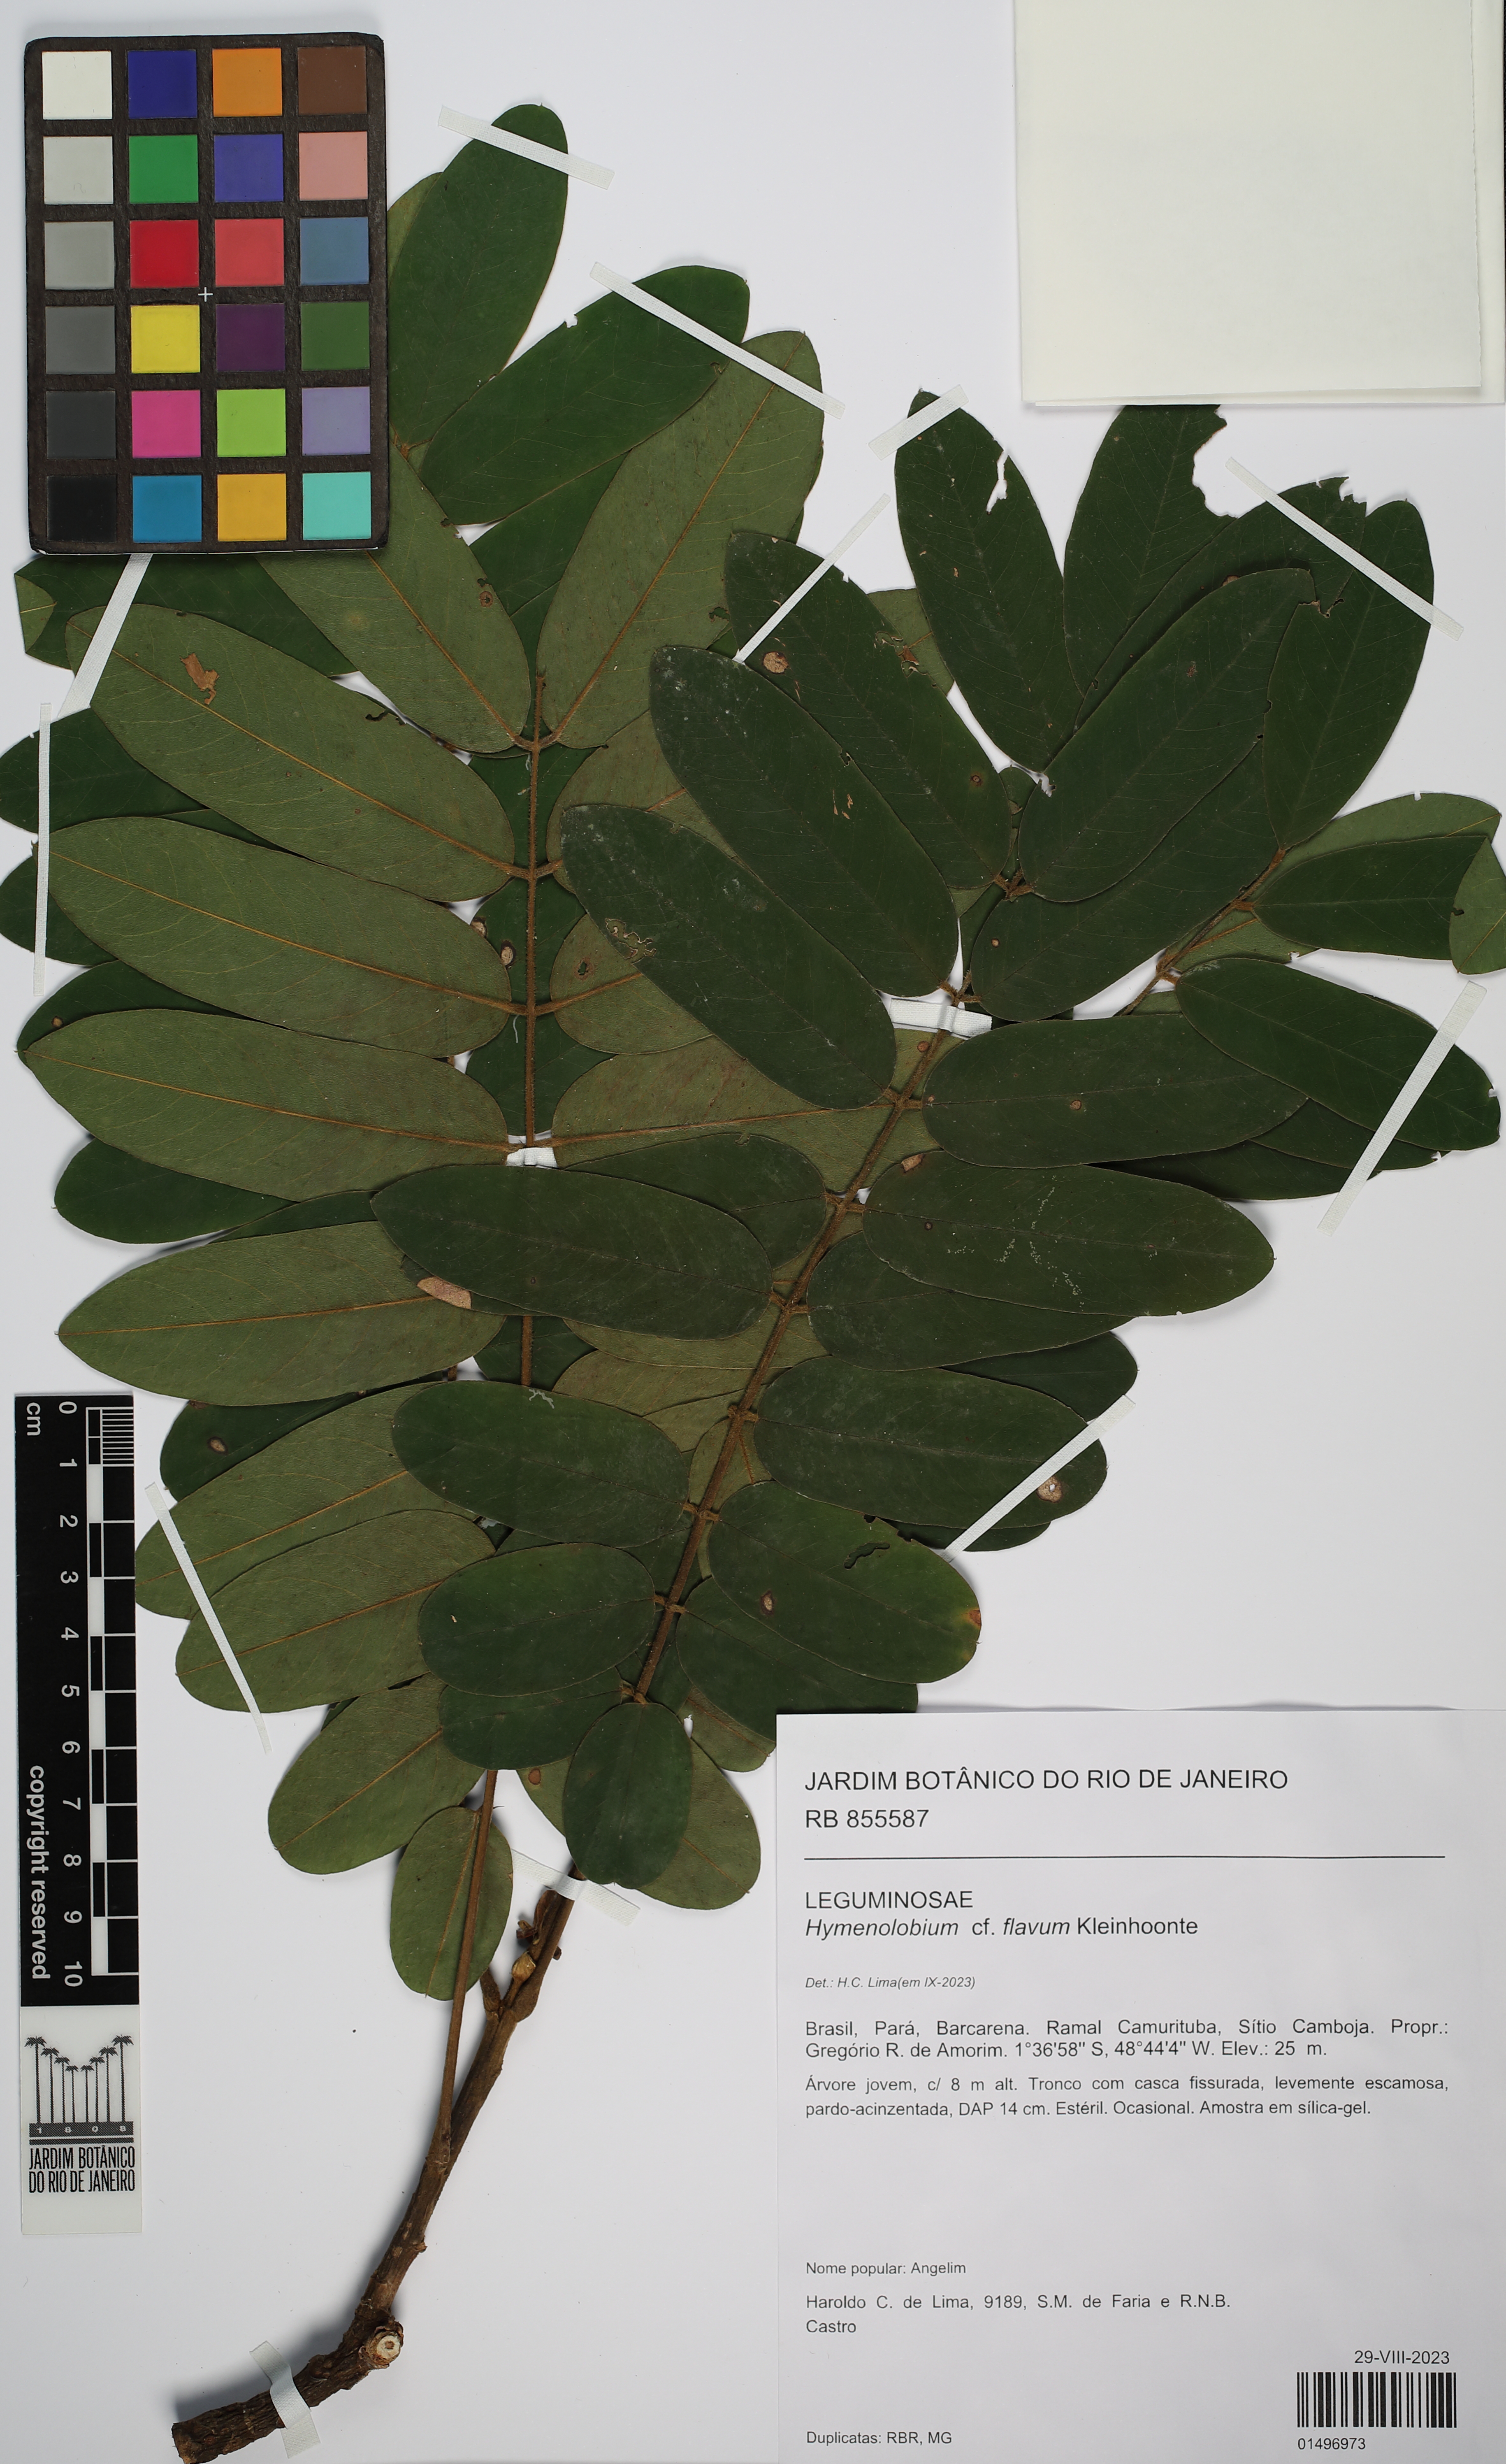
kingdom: Plantae
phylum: Tracheophyta
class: Magnoliopsida
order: Fabales
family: Fabaceae
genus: Hymenolobium
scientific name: Hymenolobium flavum
